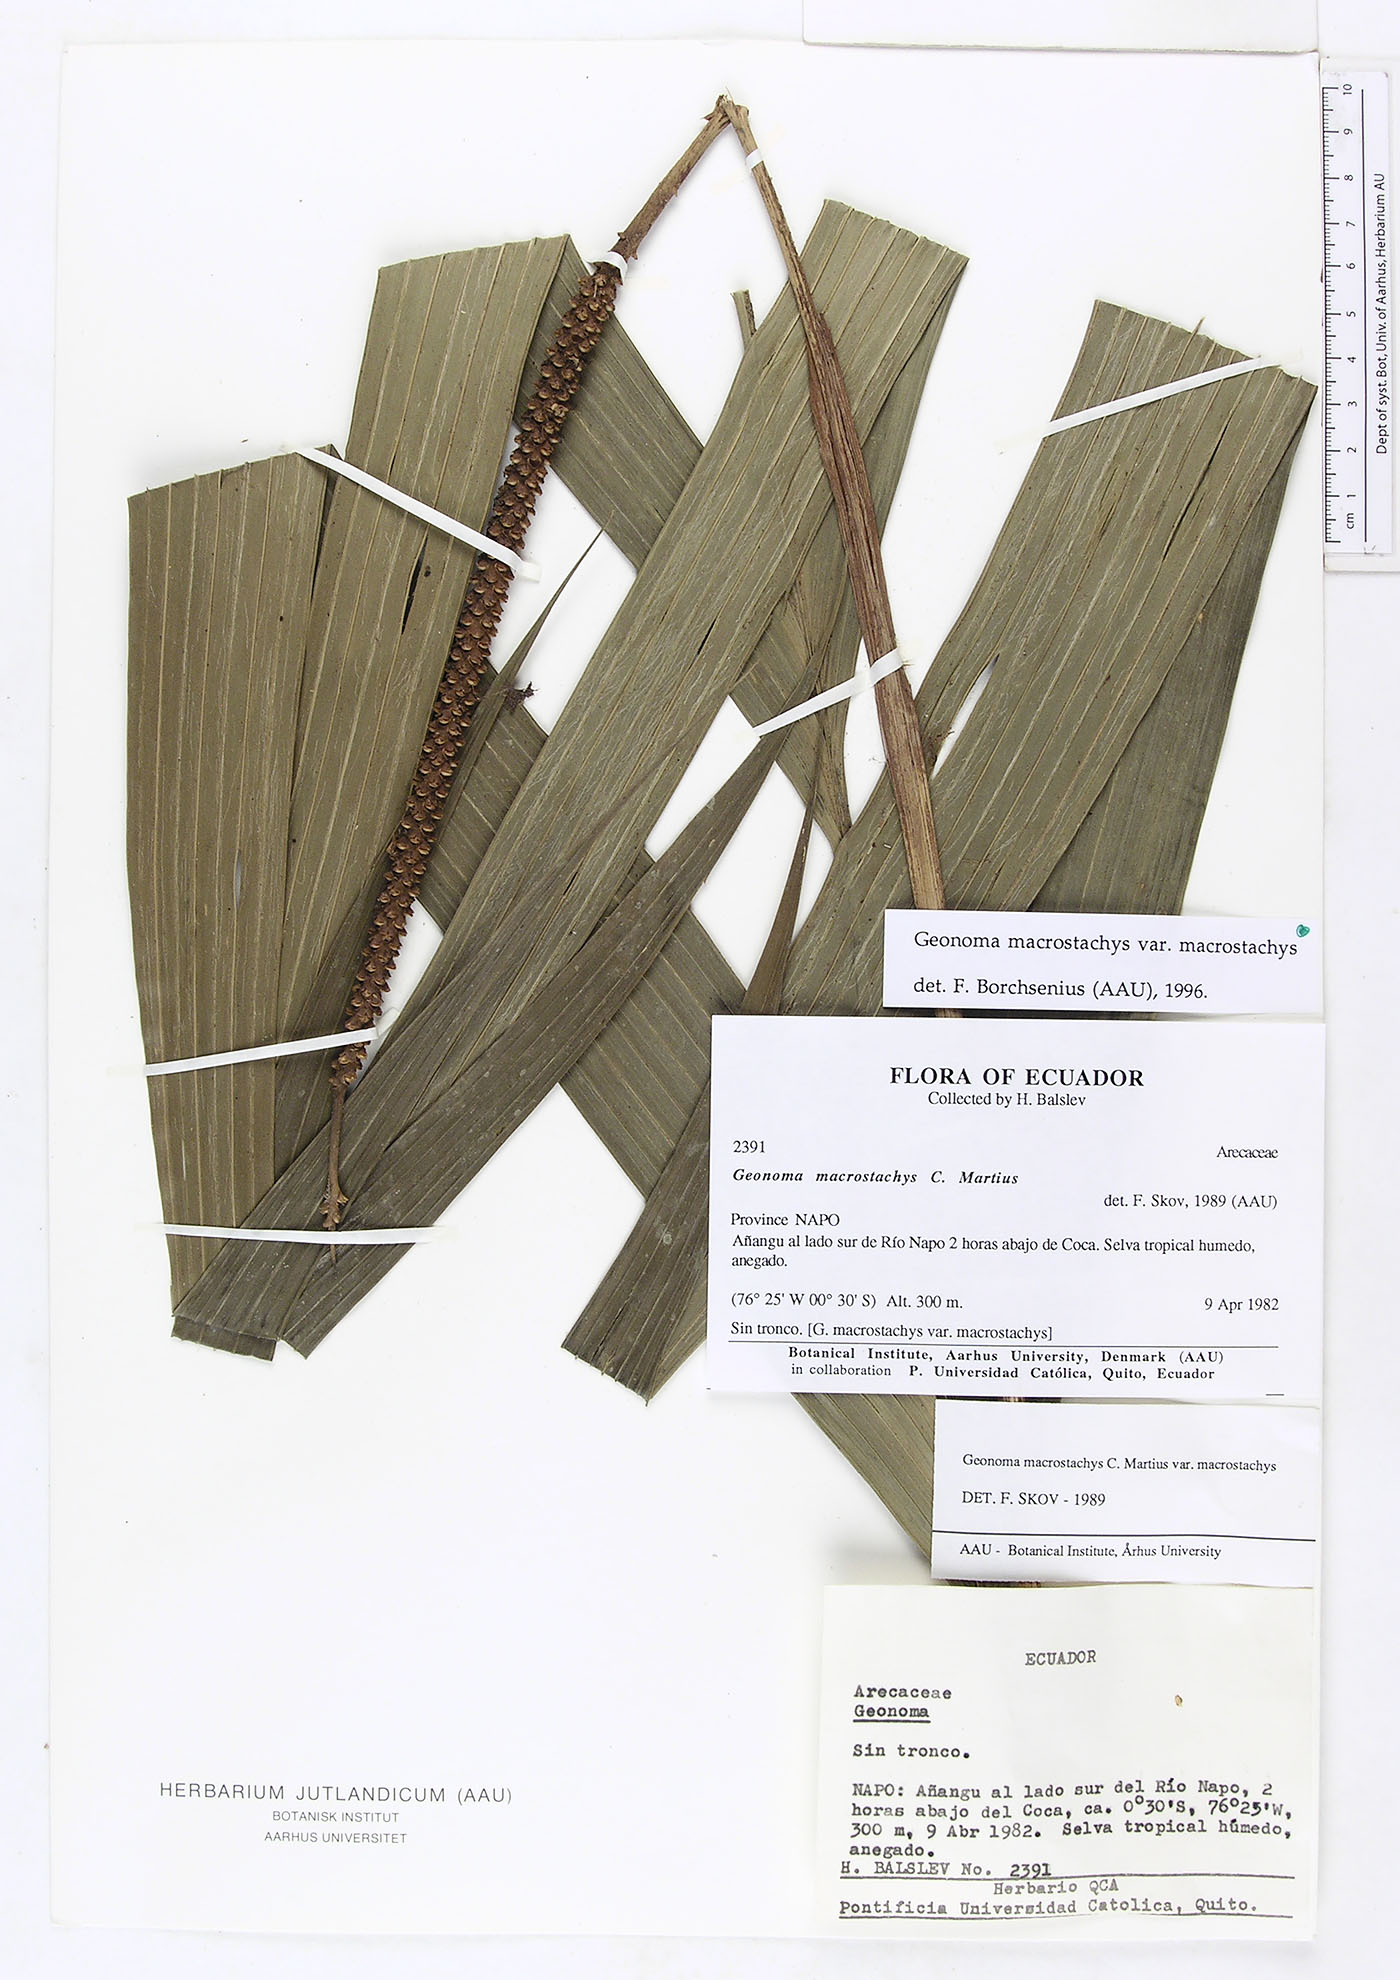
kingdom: Plantae
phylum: Tracheophyta
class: Liliopsida
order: Arecales
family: Arecaceae
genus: Geonoma
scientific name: Geonoma macrostachys
